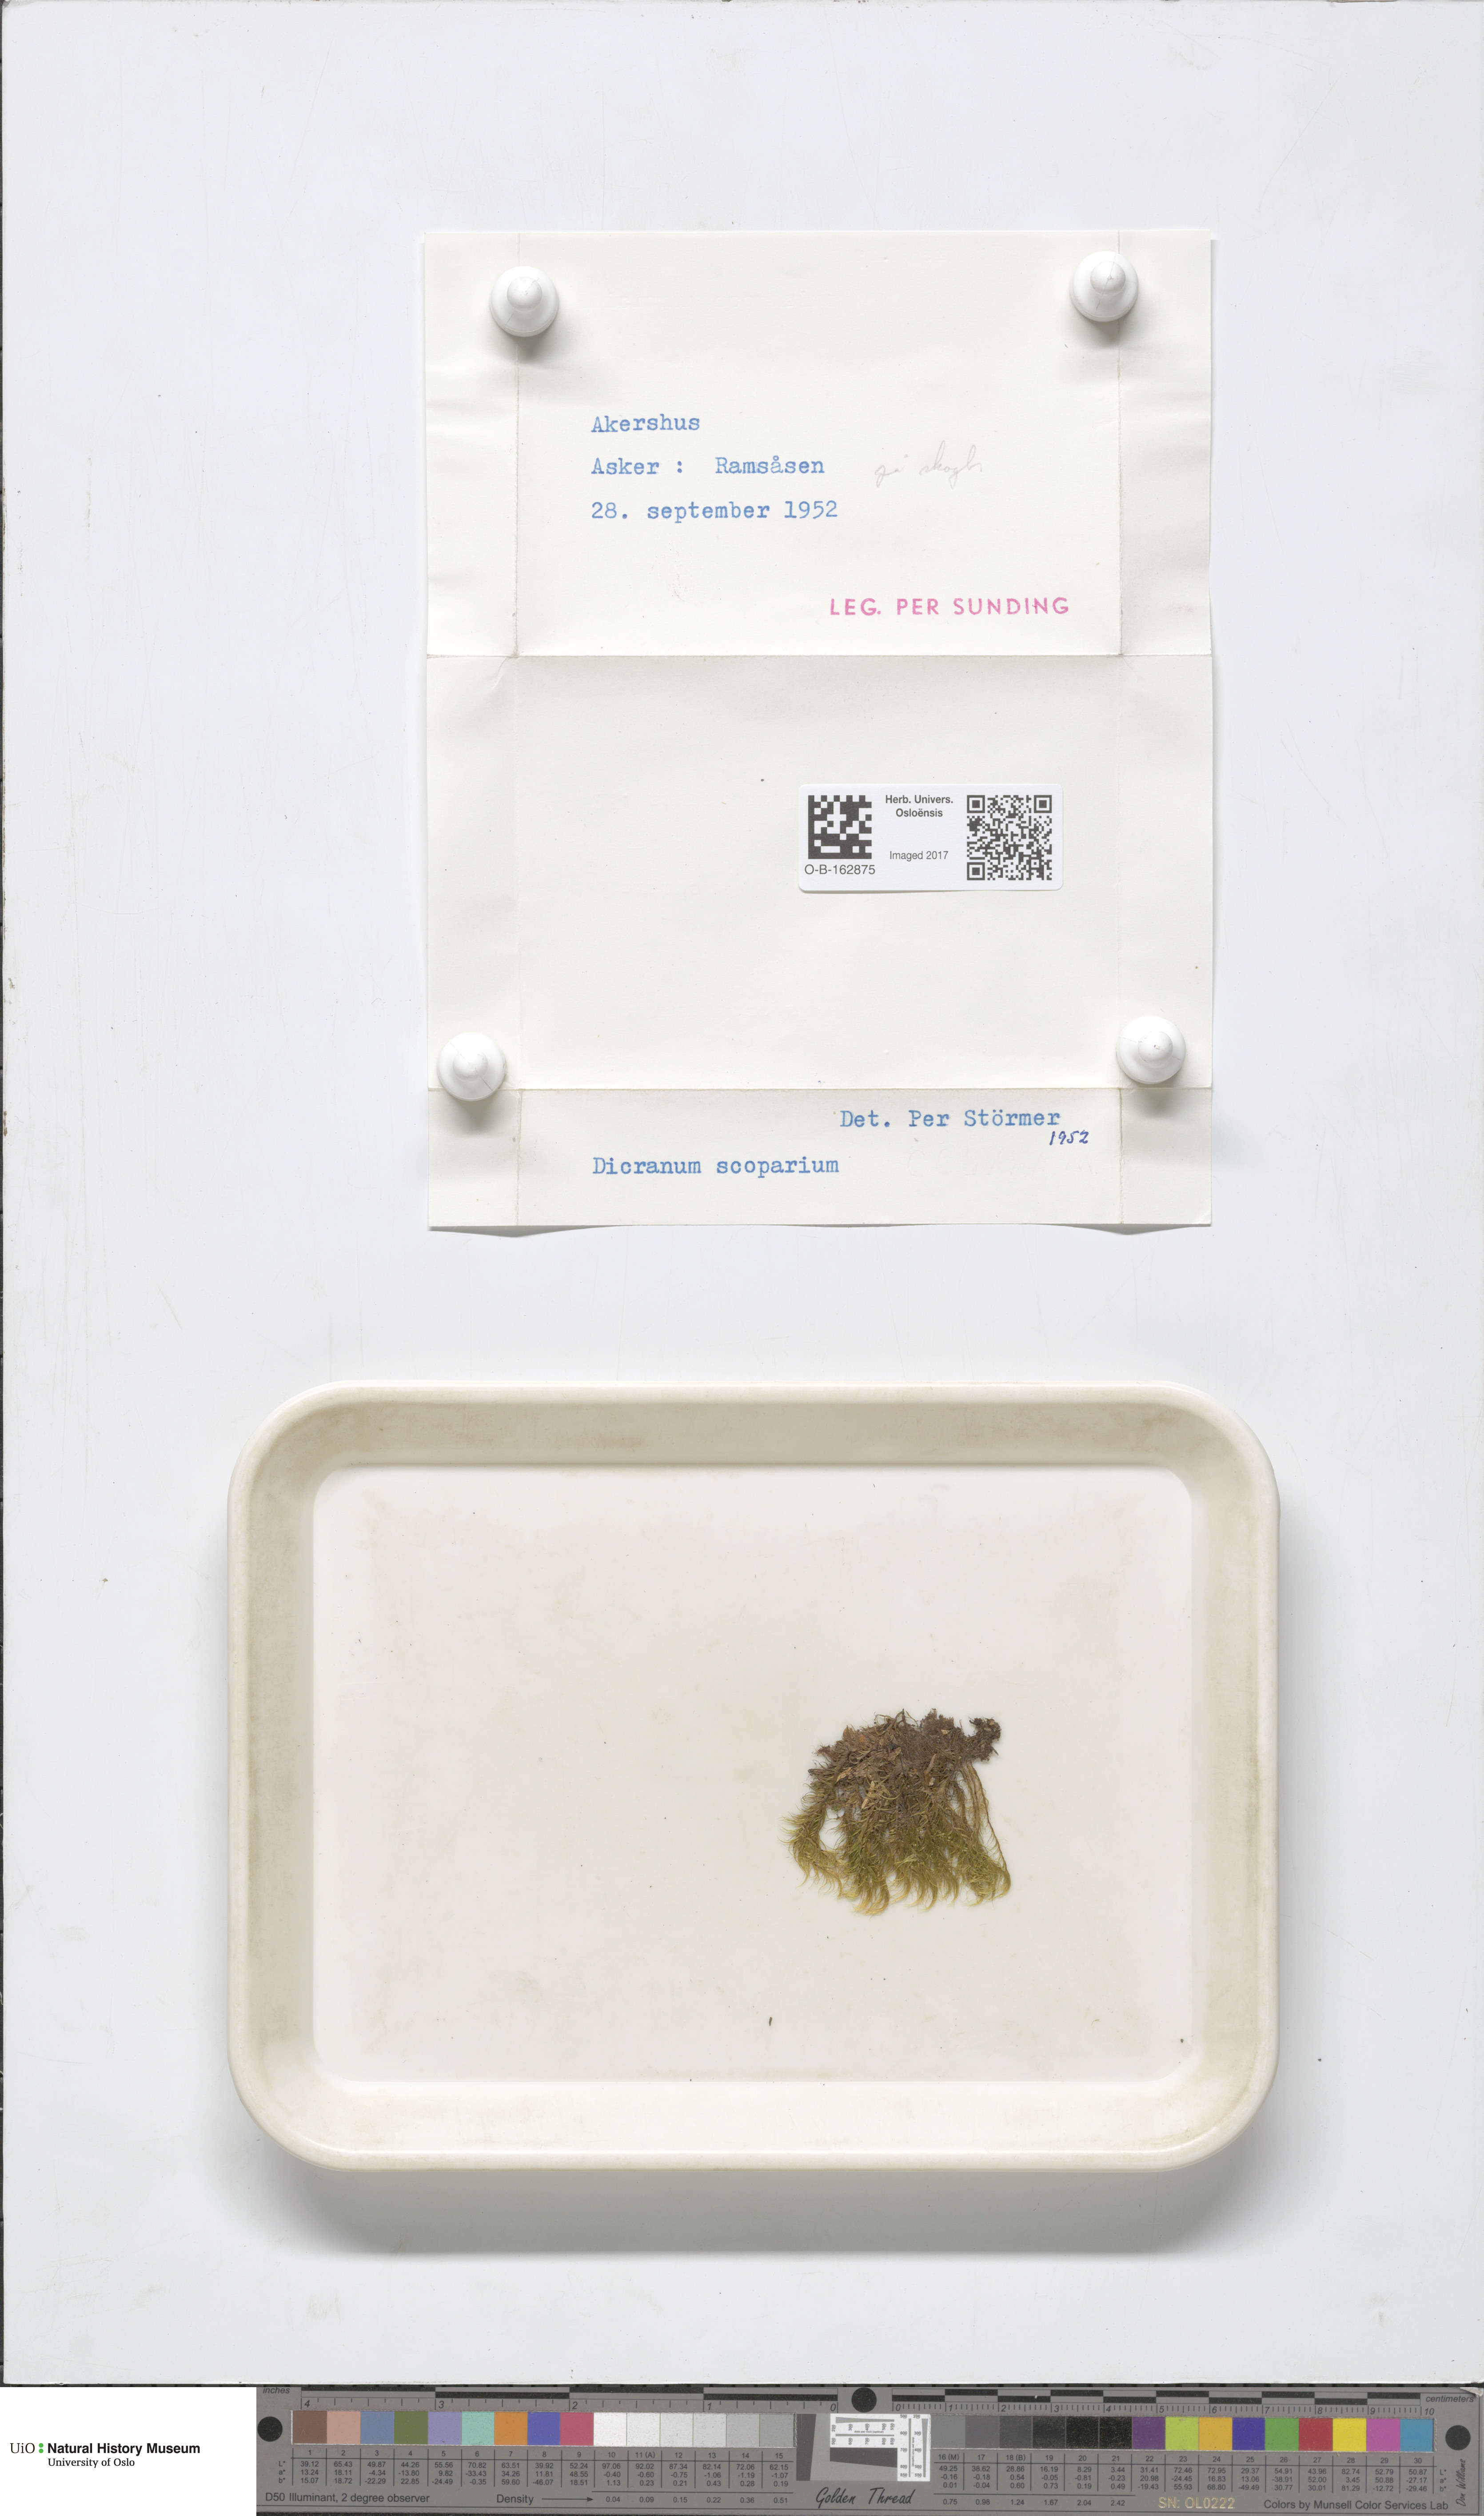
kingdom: Plantae
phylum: Bryophyta
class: Bryopsida
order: Dicranales
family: Dicranaceae
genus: Dicranum
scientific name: Dicranum scoparium
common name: Broom fork-moss
